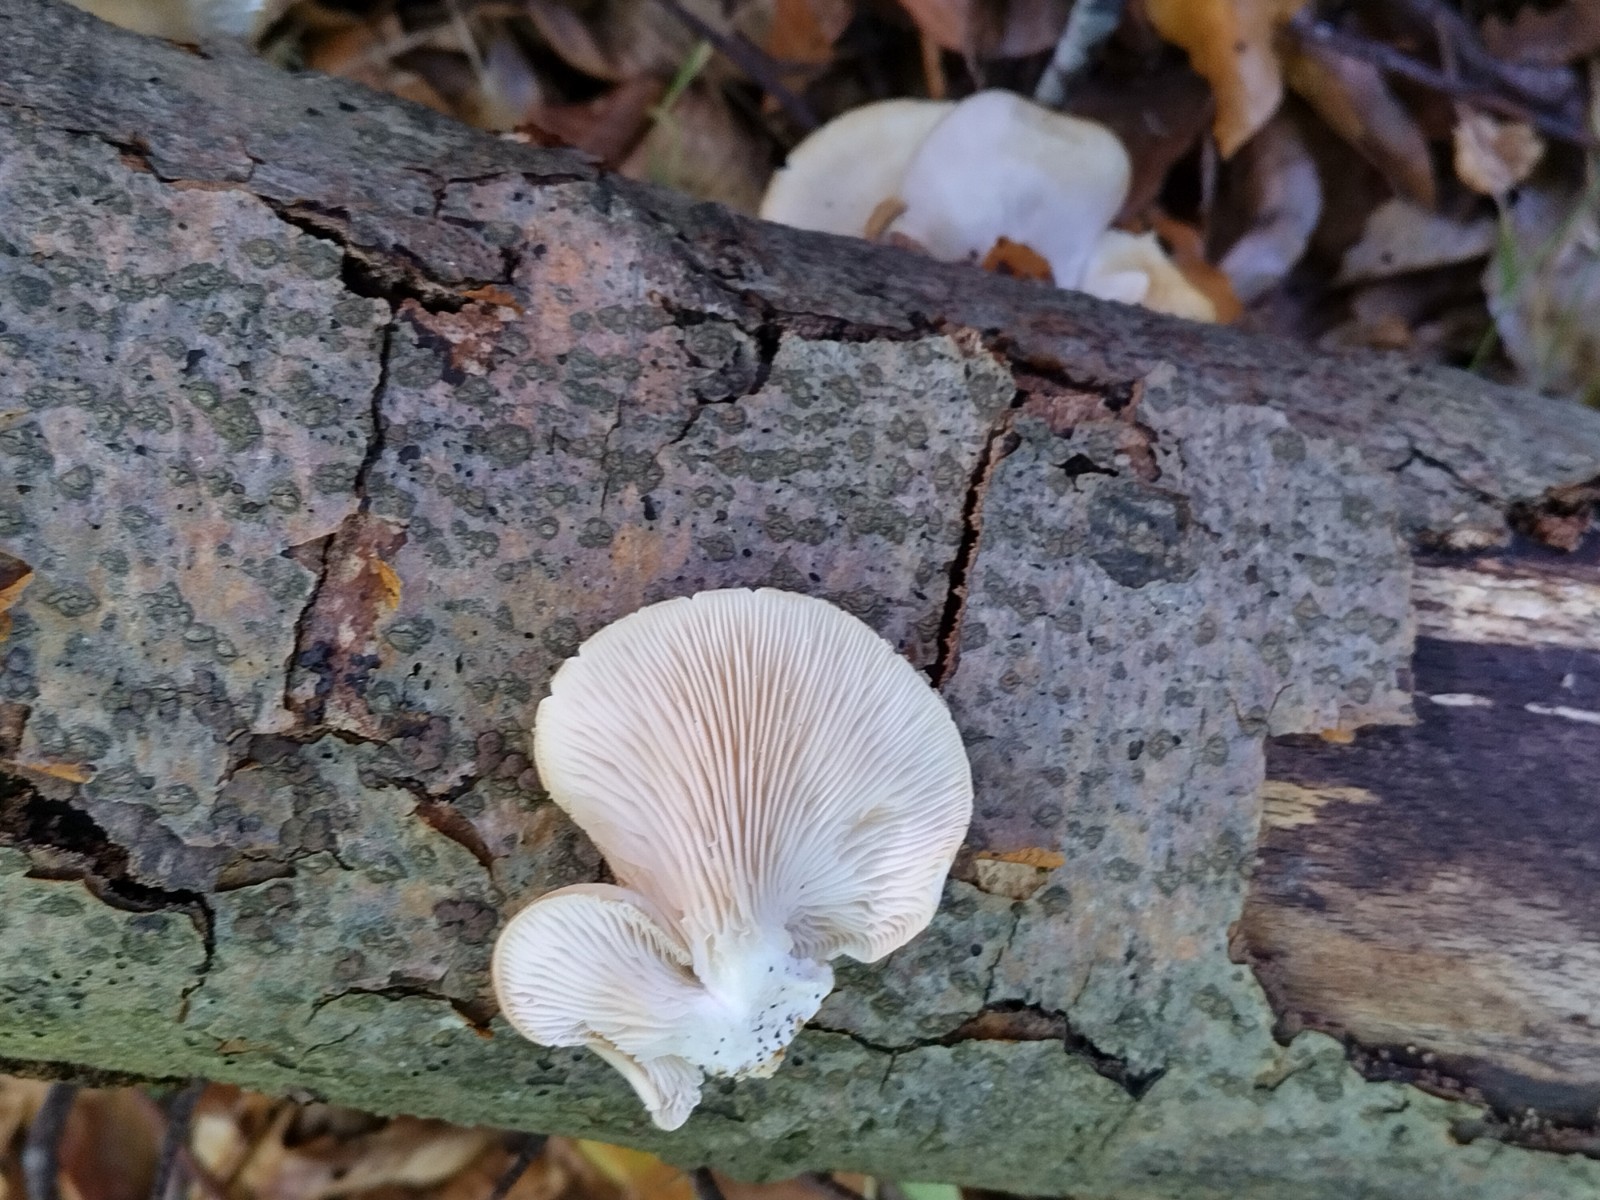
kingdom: Fungi
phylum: Basidiomycota
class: Agaricomycetes
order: Agaricales
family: Pleurotaceae
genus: Pleurotus
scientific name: Pleurotus pulmonarius
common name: sommer-østershat
